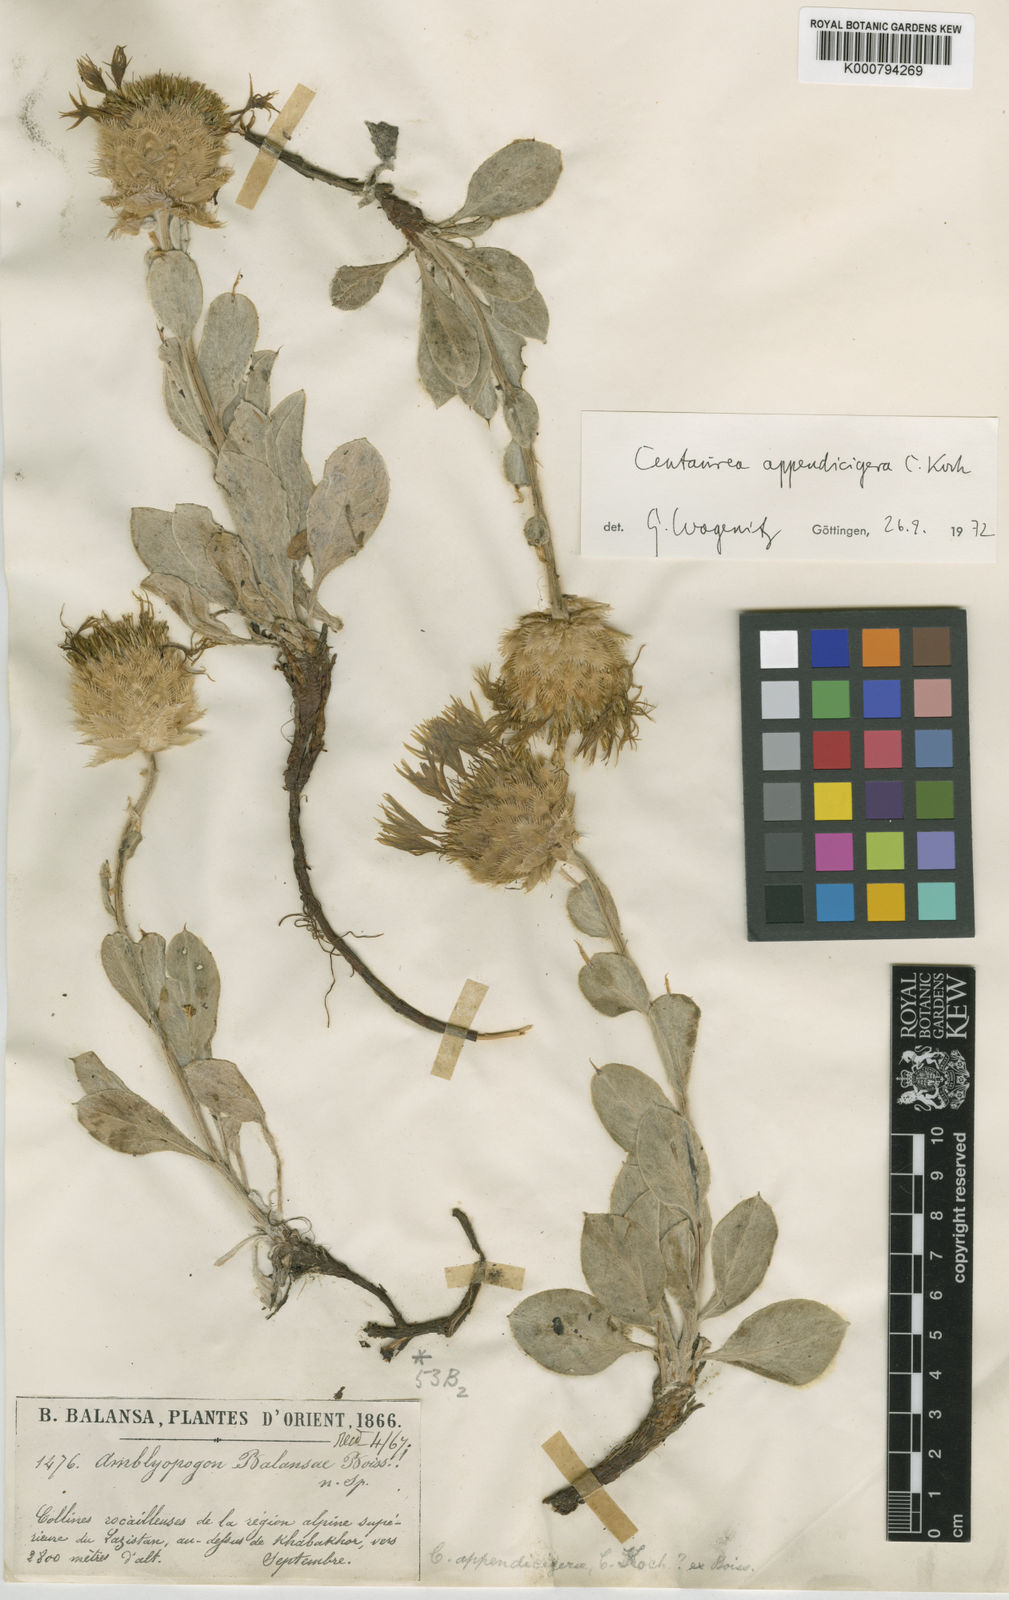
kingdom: Plantae
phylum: Tracheophyta
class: Magnoliopsida
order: Asterales
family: Asteraceae
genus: Psephellus
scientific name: Psephellus appendicigerus
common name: Appendage-bearing centaury
